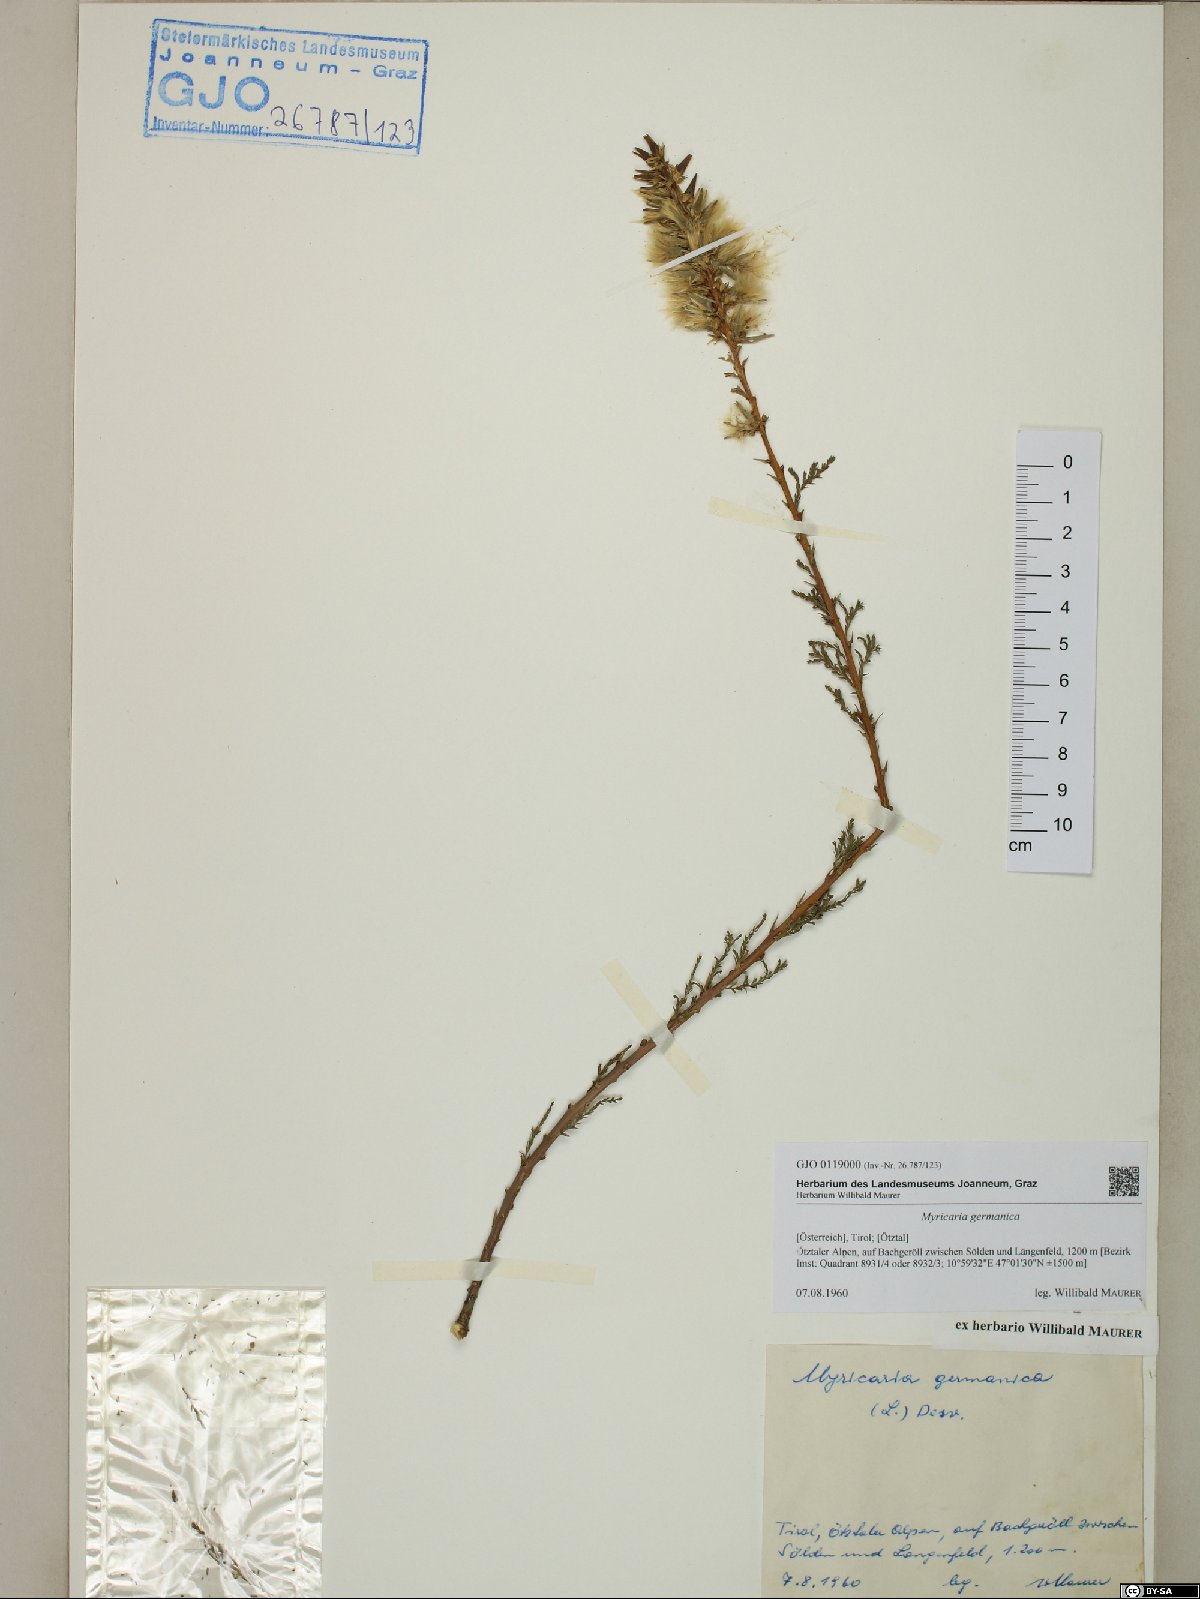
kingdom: Plantae
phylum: Tracheophyta
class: Magnoliopsida
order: Caryophyllales
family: Tamaricaceae
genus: Myricaria
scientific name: Myricaria germanica
